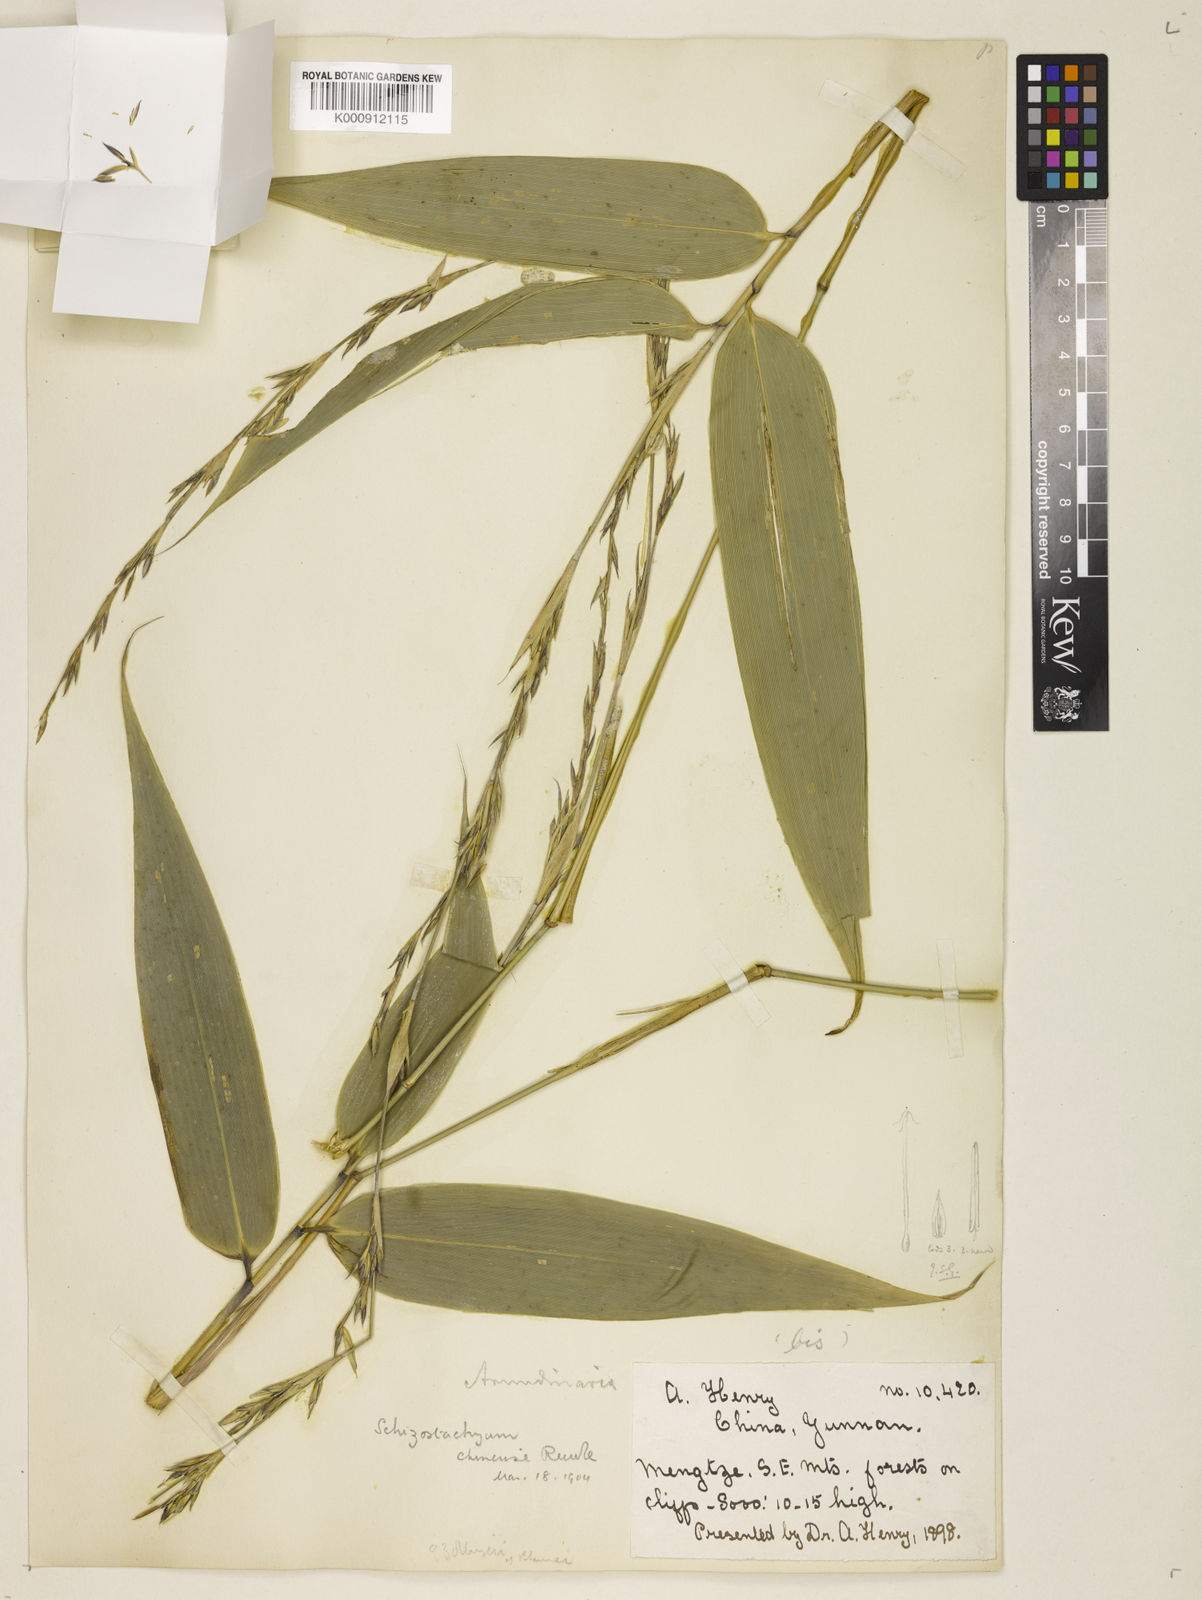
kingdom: Plantae
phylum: Tracheophyta
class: Liliopsida
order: Poales
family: Poaceae
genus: Cephalostachyum
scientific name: Cephalostachyum chinense
